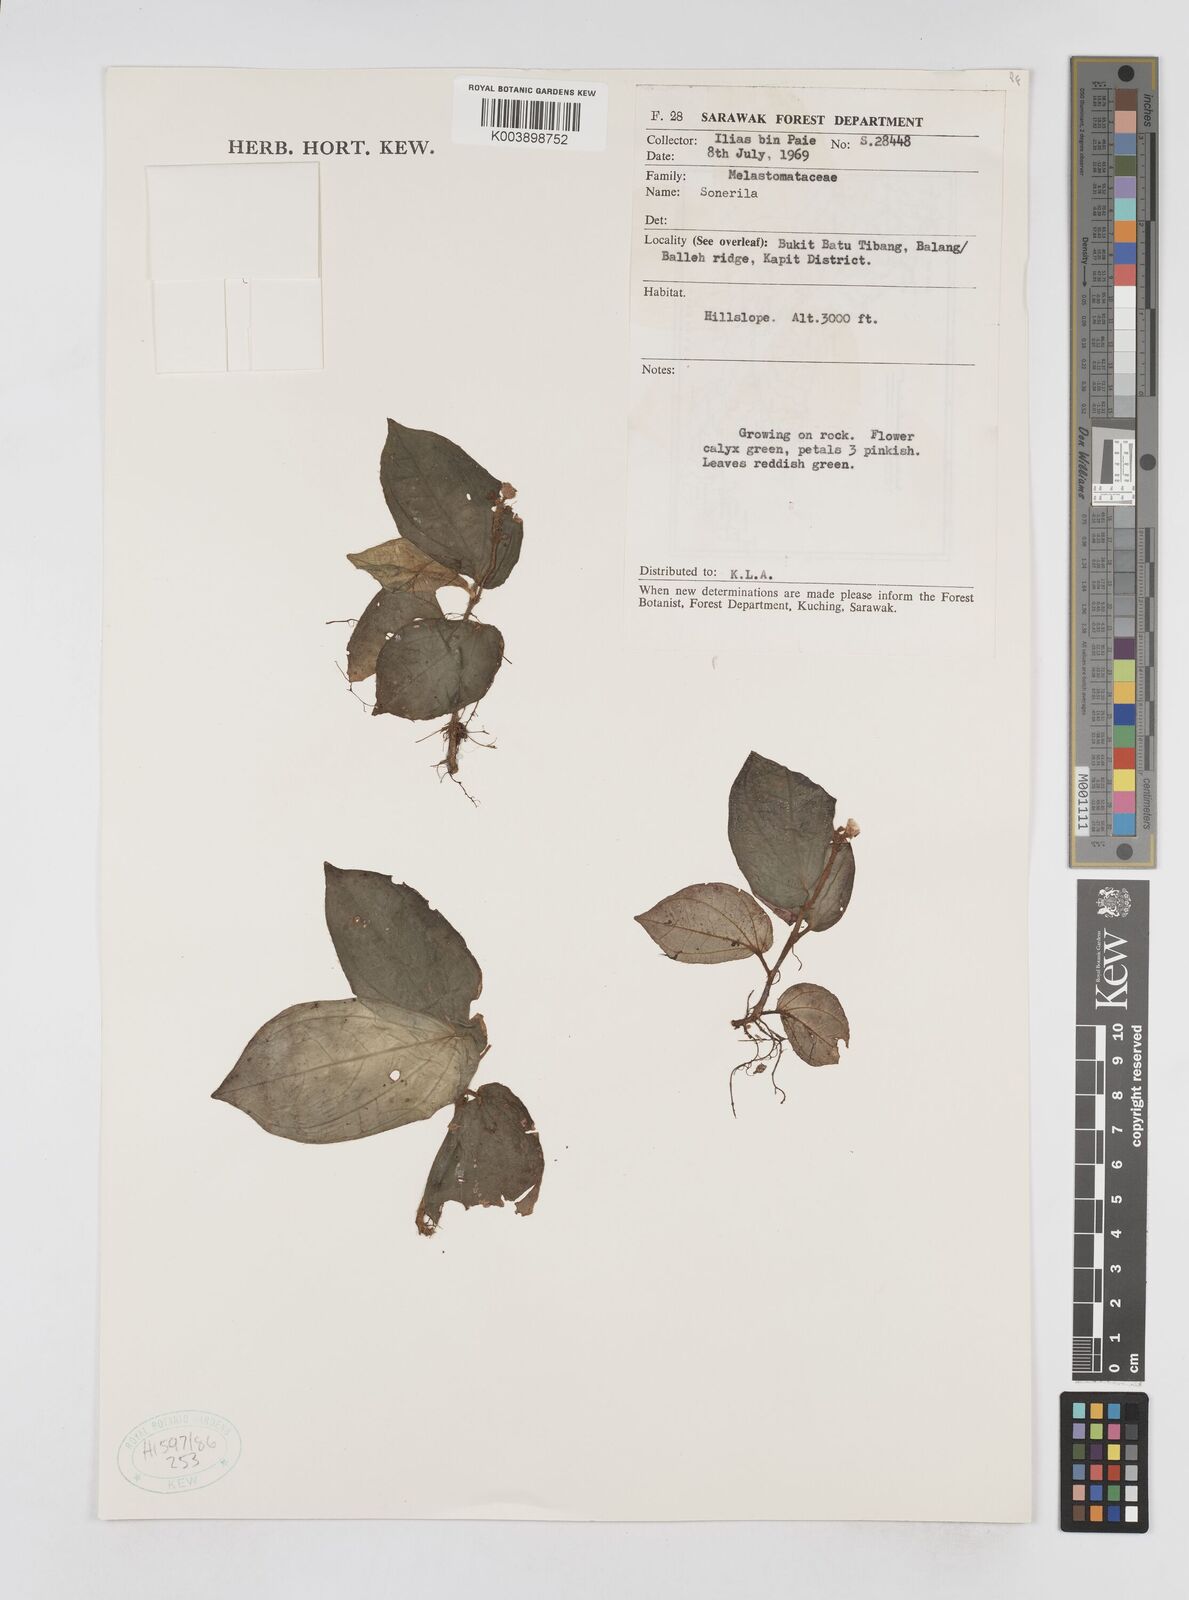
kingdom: Plantae
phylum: Tracheophyta
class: Magnoliopsida
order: Myrtales
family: Melastomataceae
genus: Sonerila
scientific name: Sonerila
